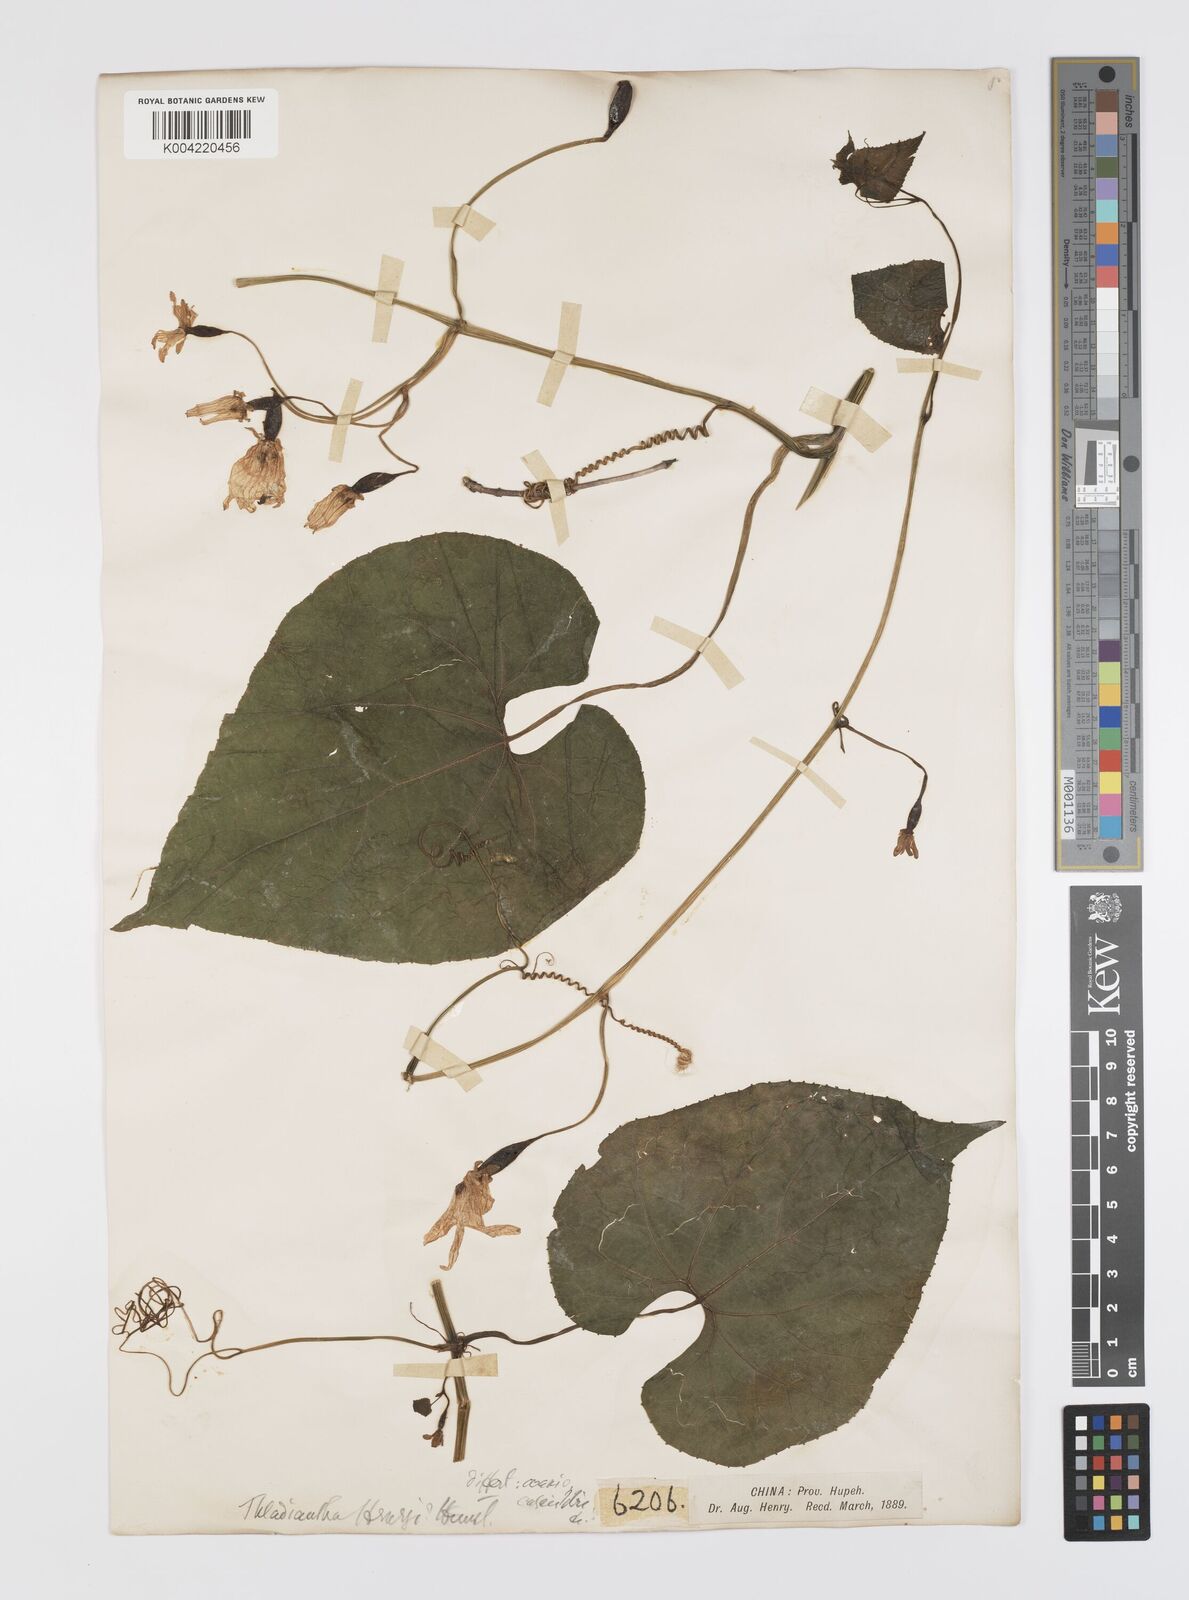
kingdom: Plantae
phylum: Tracheophyta
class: Magnoliopsida
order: Cucurbitales
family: Cucurbitaceae
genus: Thladiantha
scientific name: Thladiantha montana
